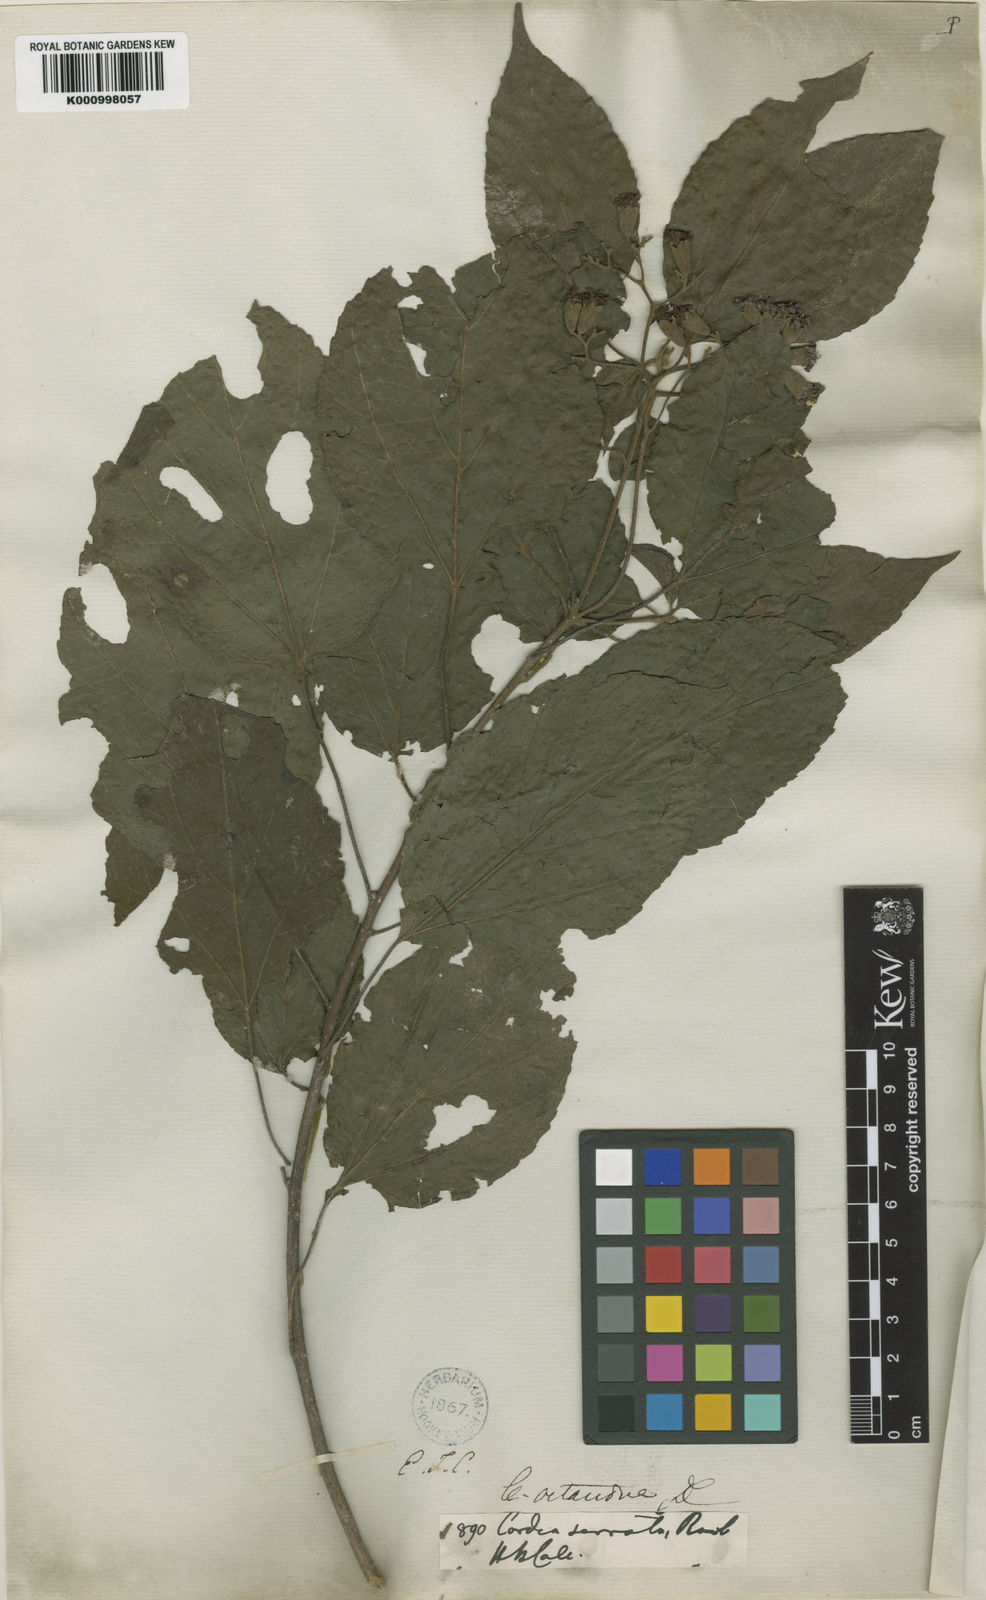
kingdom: Plantae
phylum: Tracheophyta
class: Magnoliopsida
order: Boraginales
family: Cordiaceae
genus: Cordia
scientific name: Cordia octandra
